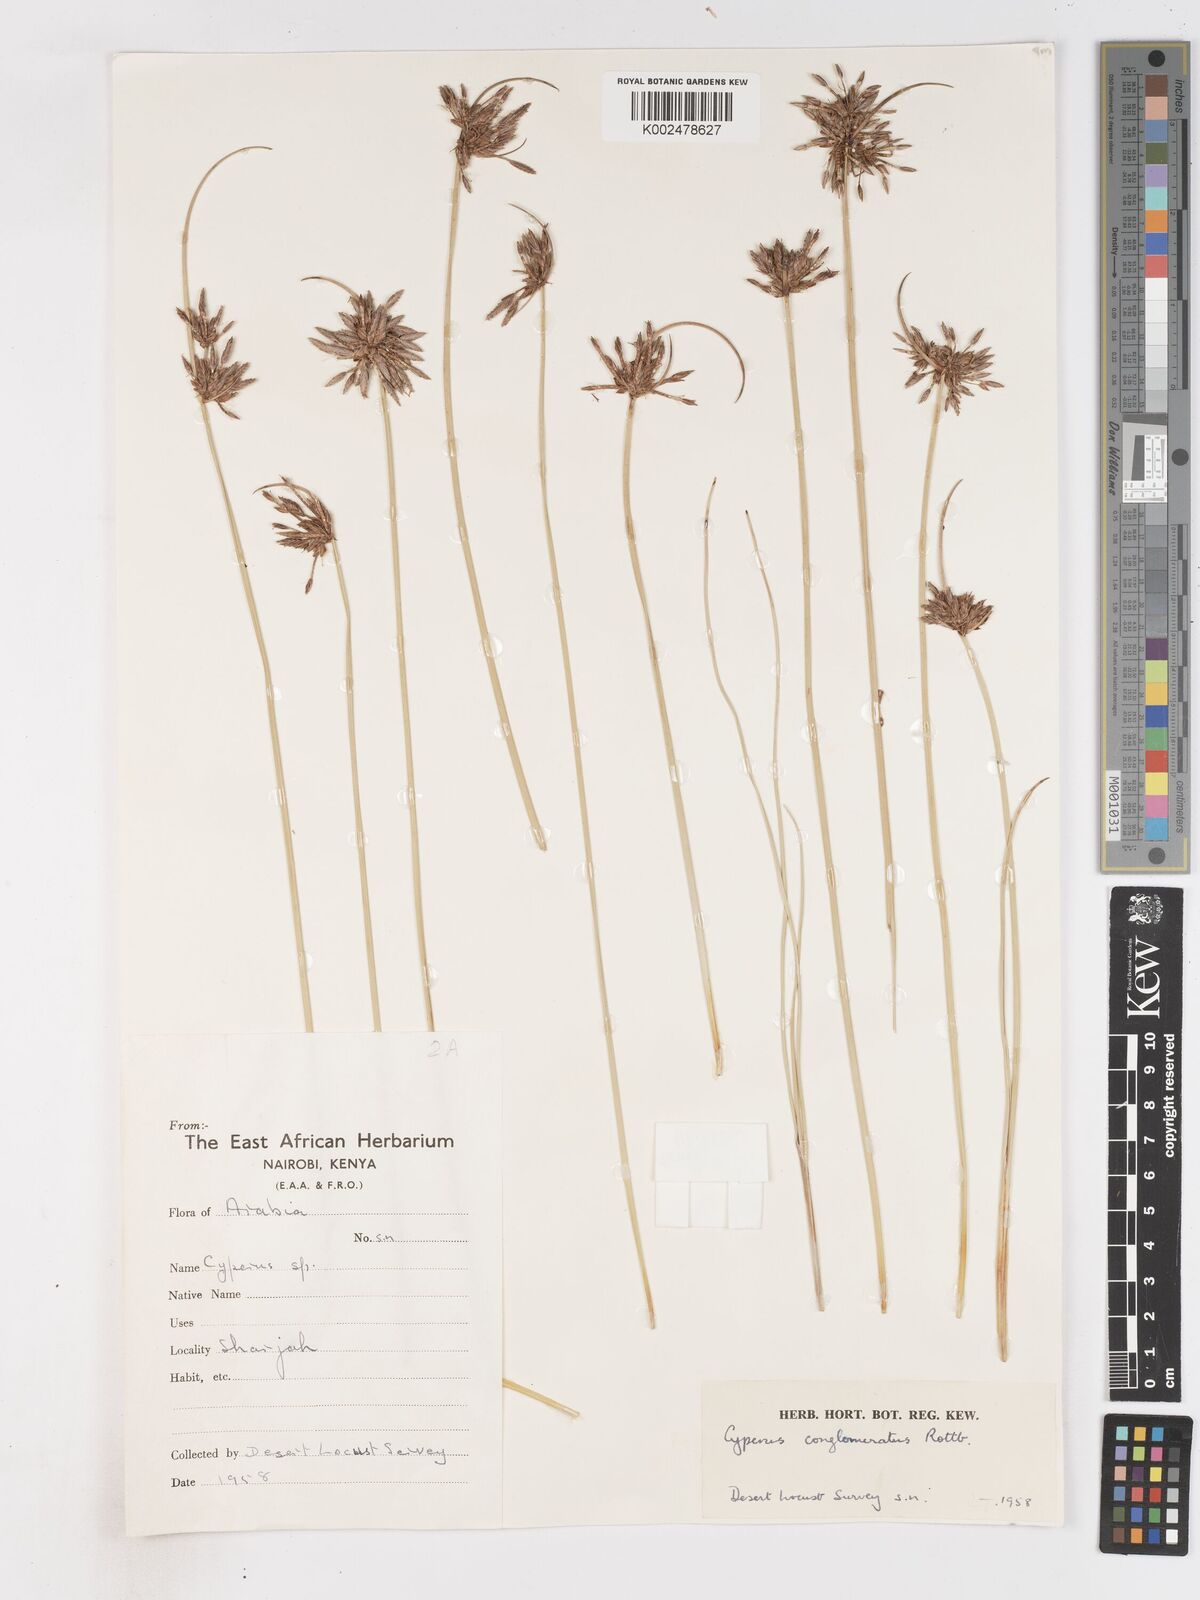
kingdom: Plantae
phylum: Tracheophyta
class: Liliopsida
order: Poales
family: Cyperaceae
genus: Cyperus
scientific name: Cyperus conglomeratus
